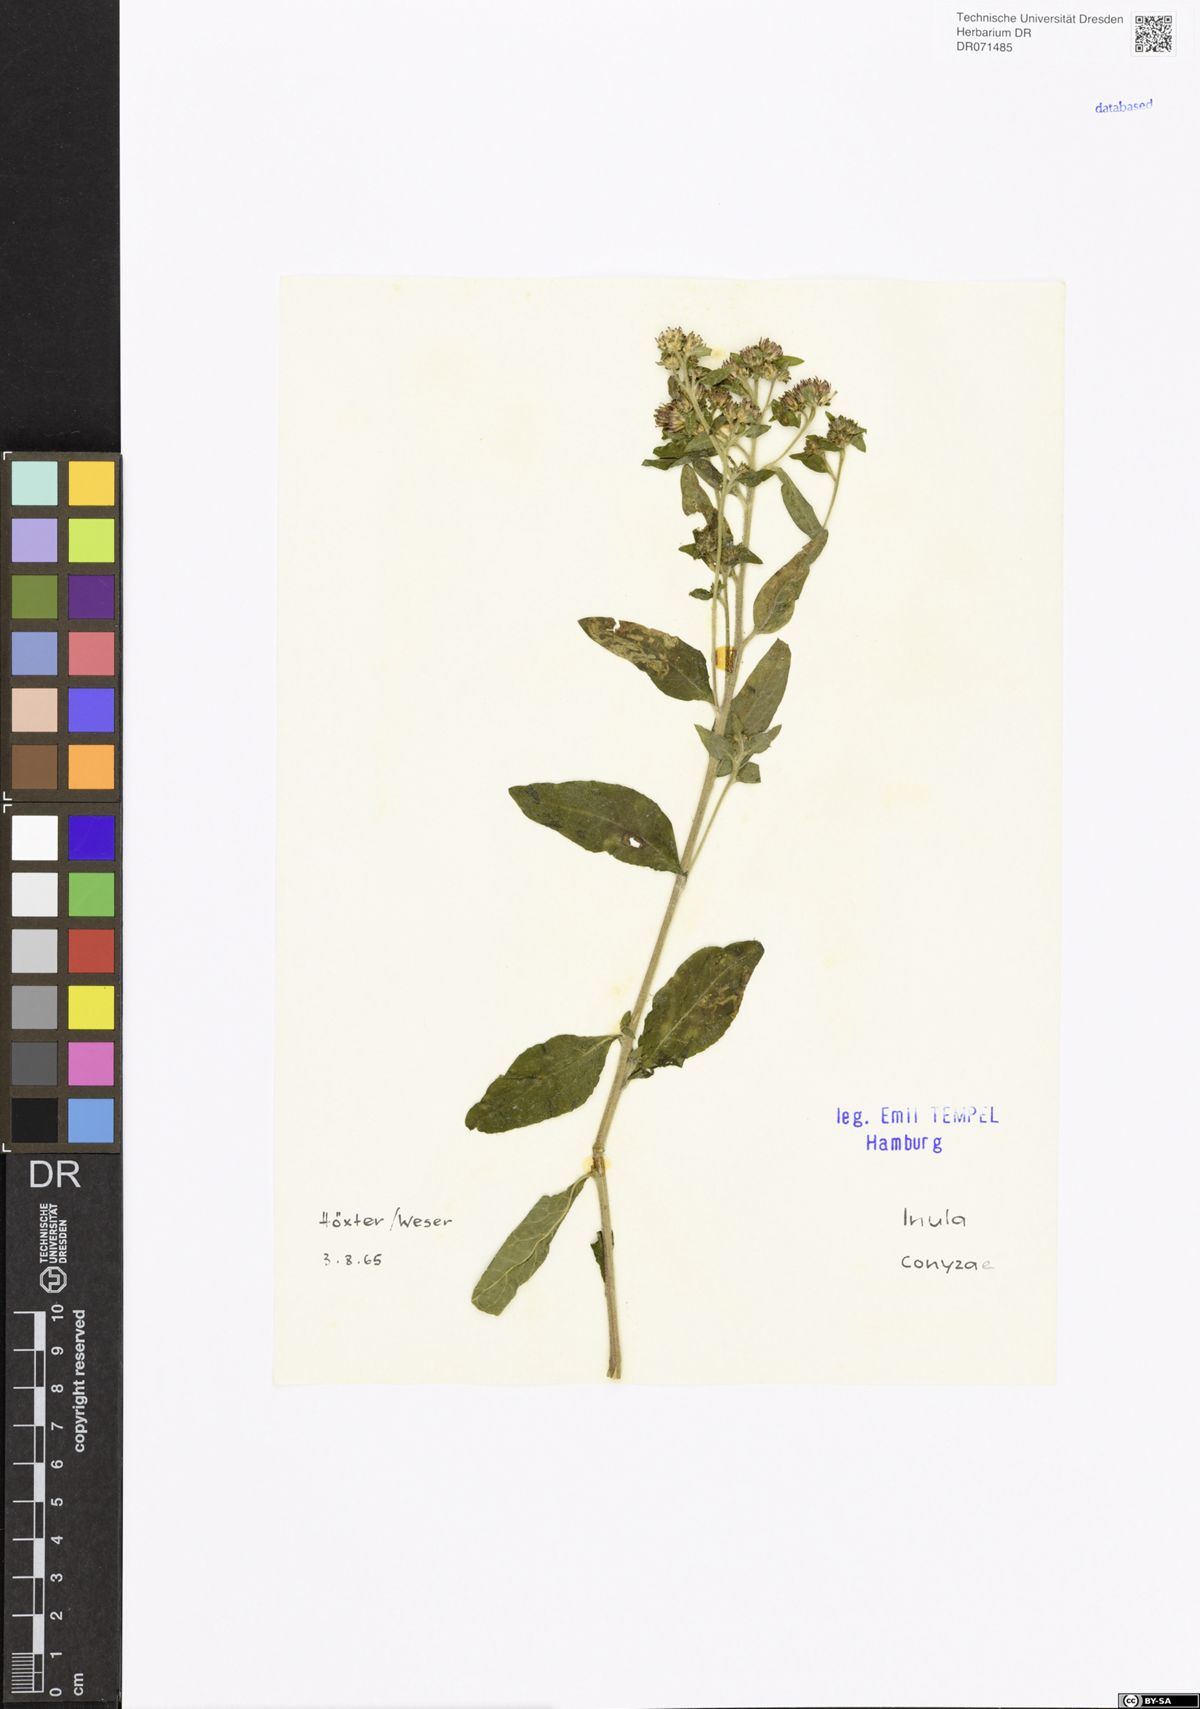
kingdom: Plantae
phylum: Tracheophyta
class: Magnoliopsida
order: Asterales
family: Asteraceae
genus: Pentanema
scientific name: Pentanema squarrosum
